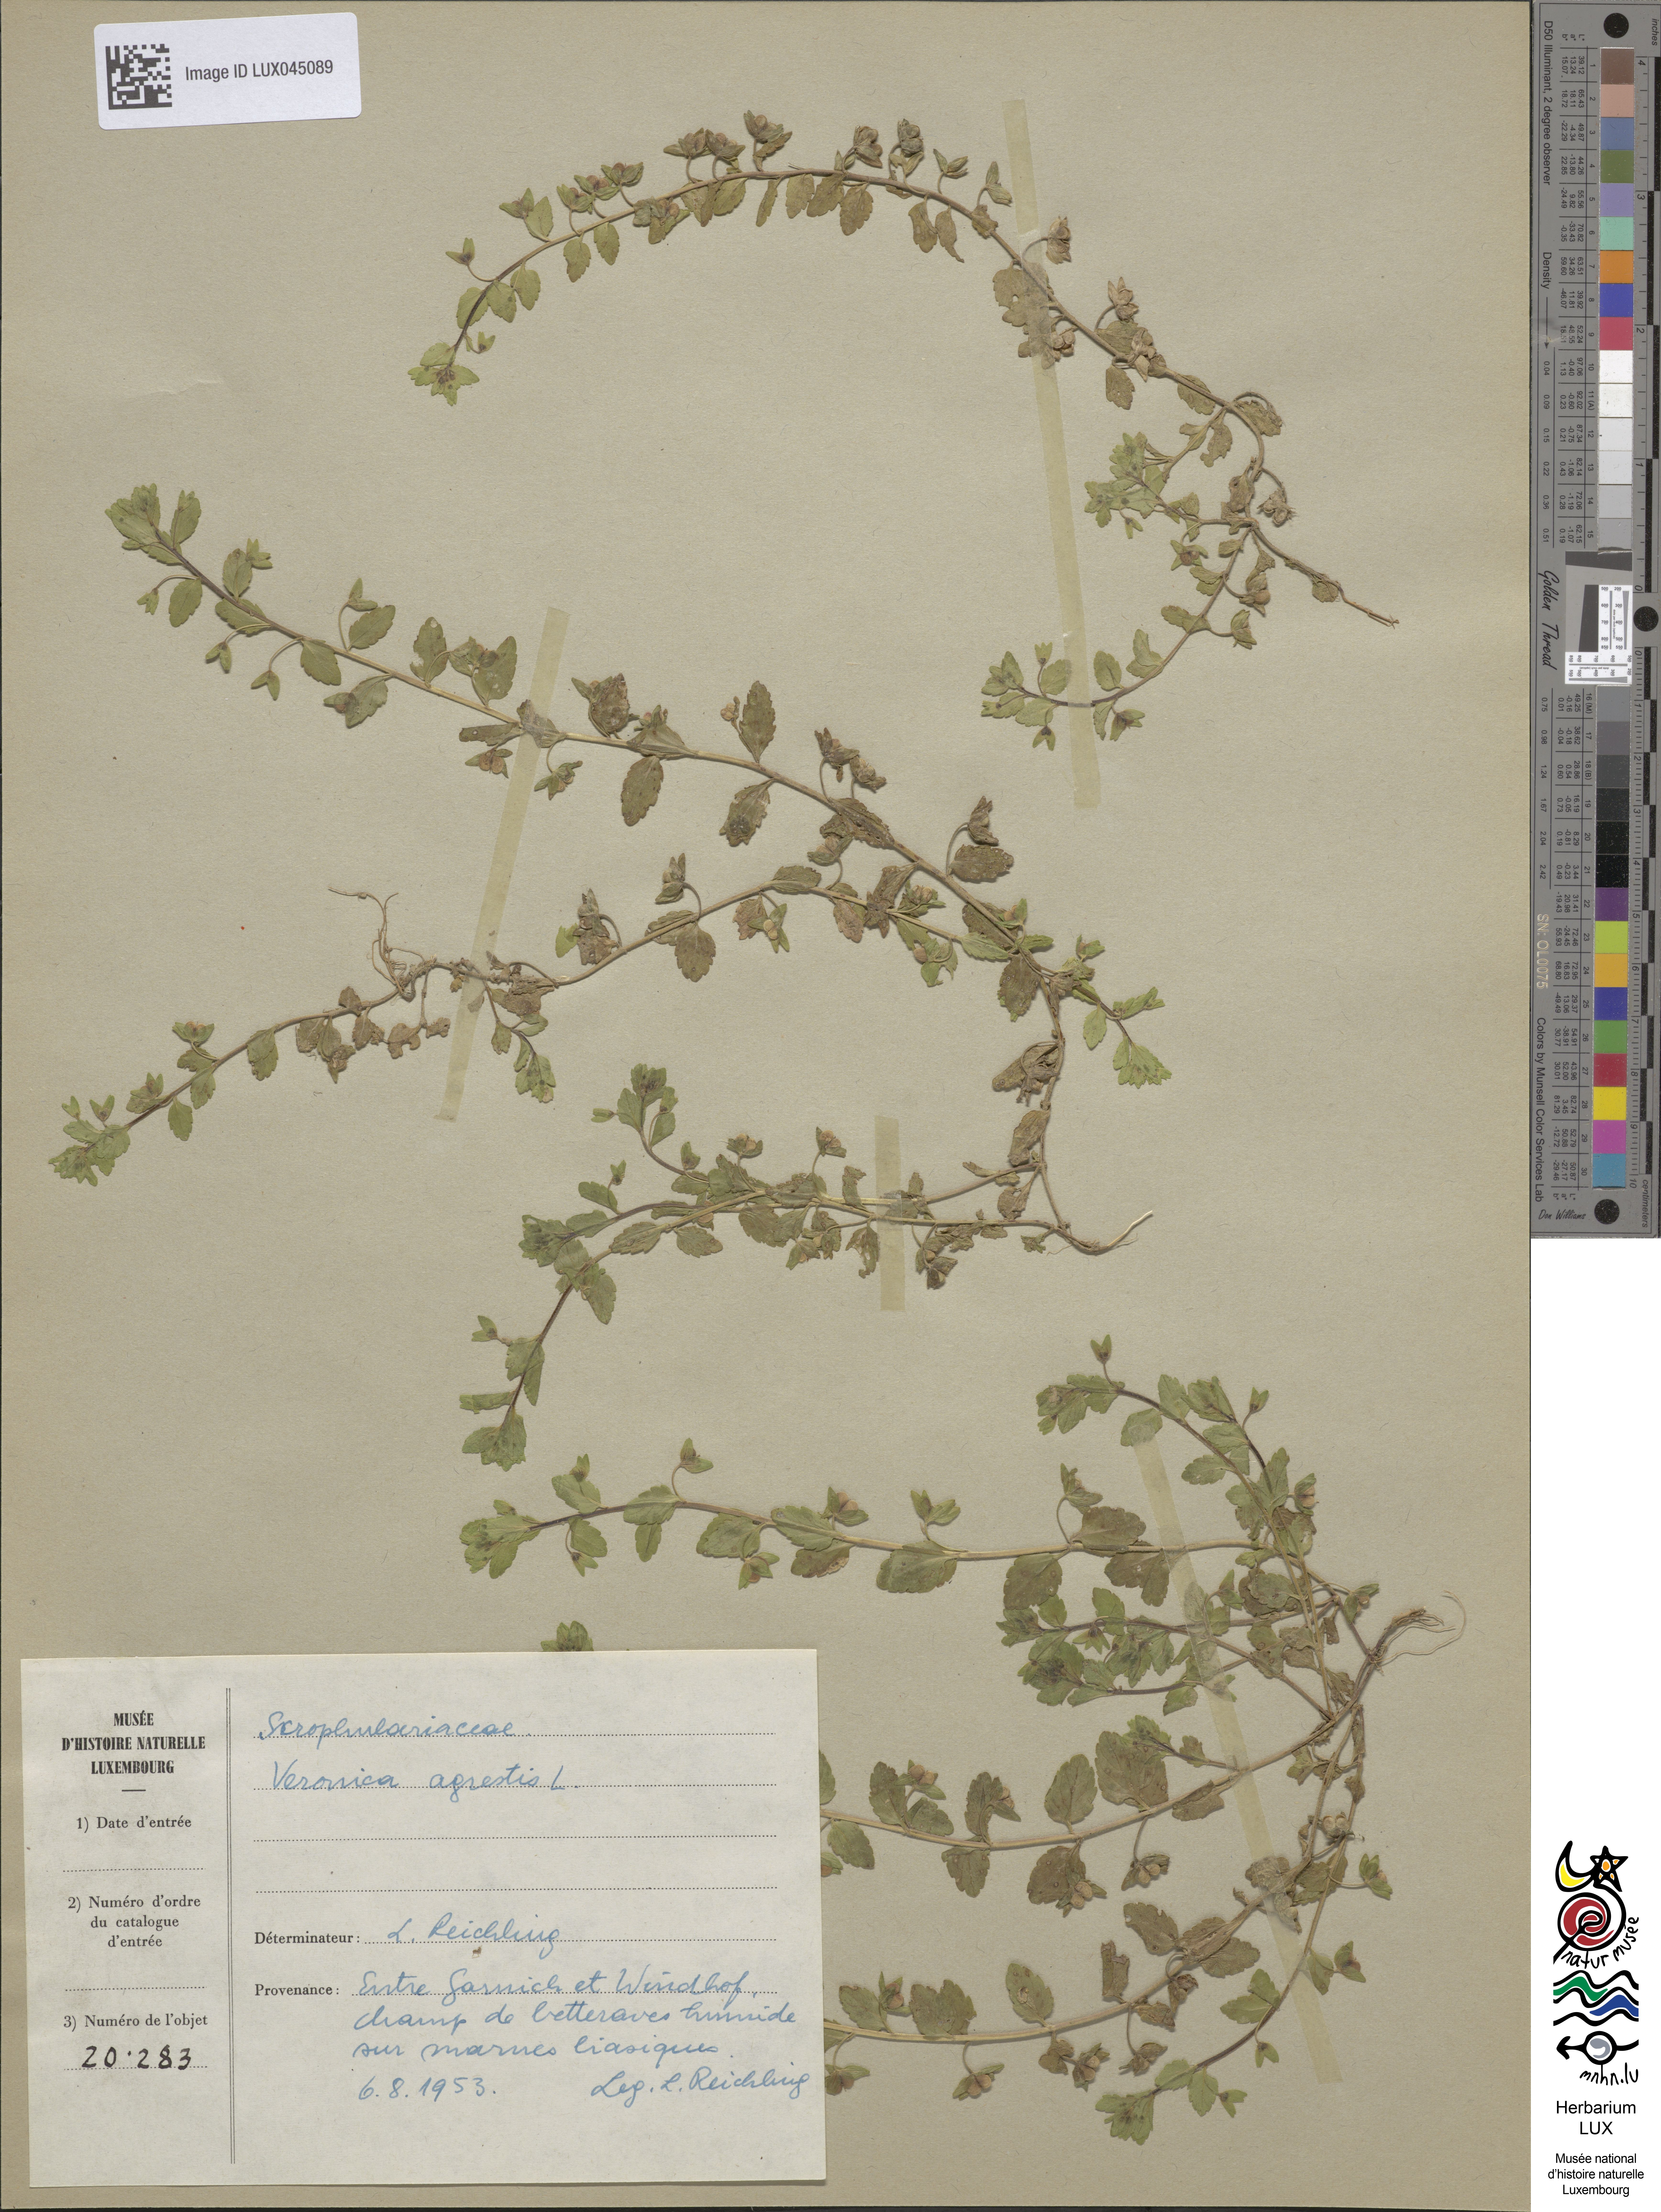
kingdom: Plantae
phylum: Tracheophyta
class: Magnoliopsida
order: Lamiales
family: Plantaginaceae
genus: Veronica
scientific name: Veronica agrestis
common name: Green field-speedwell
